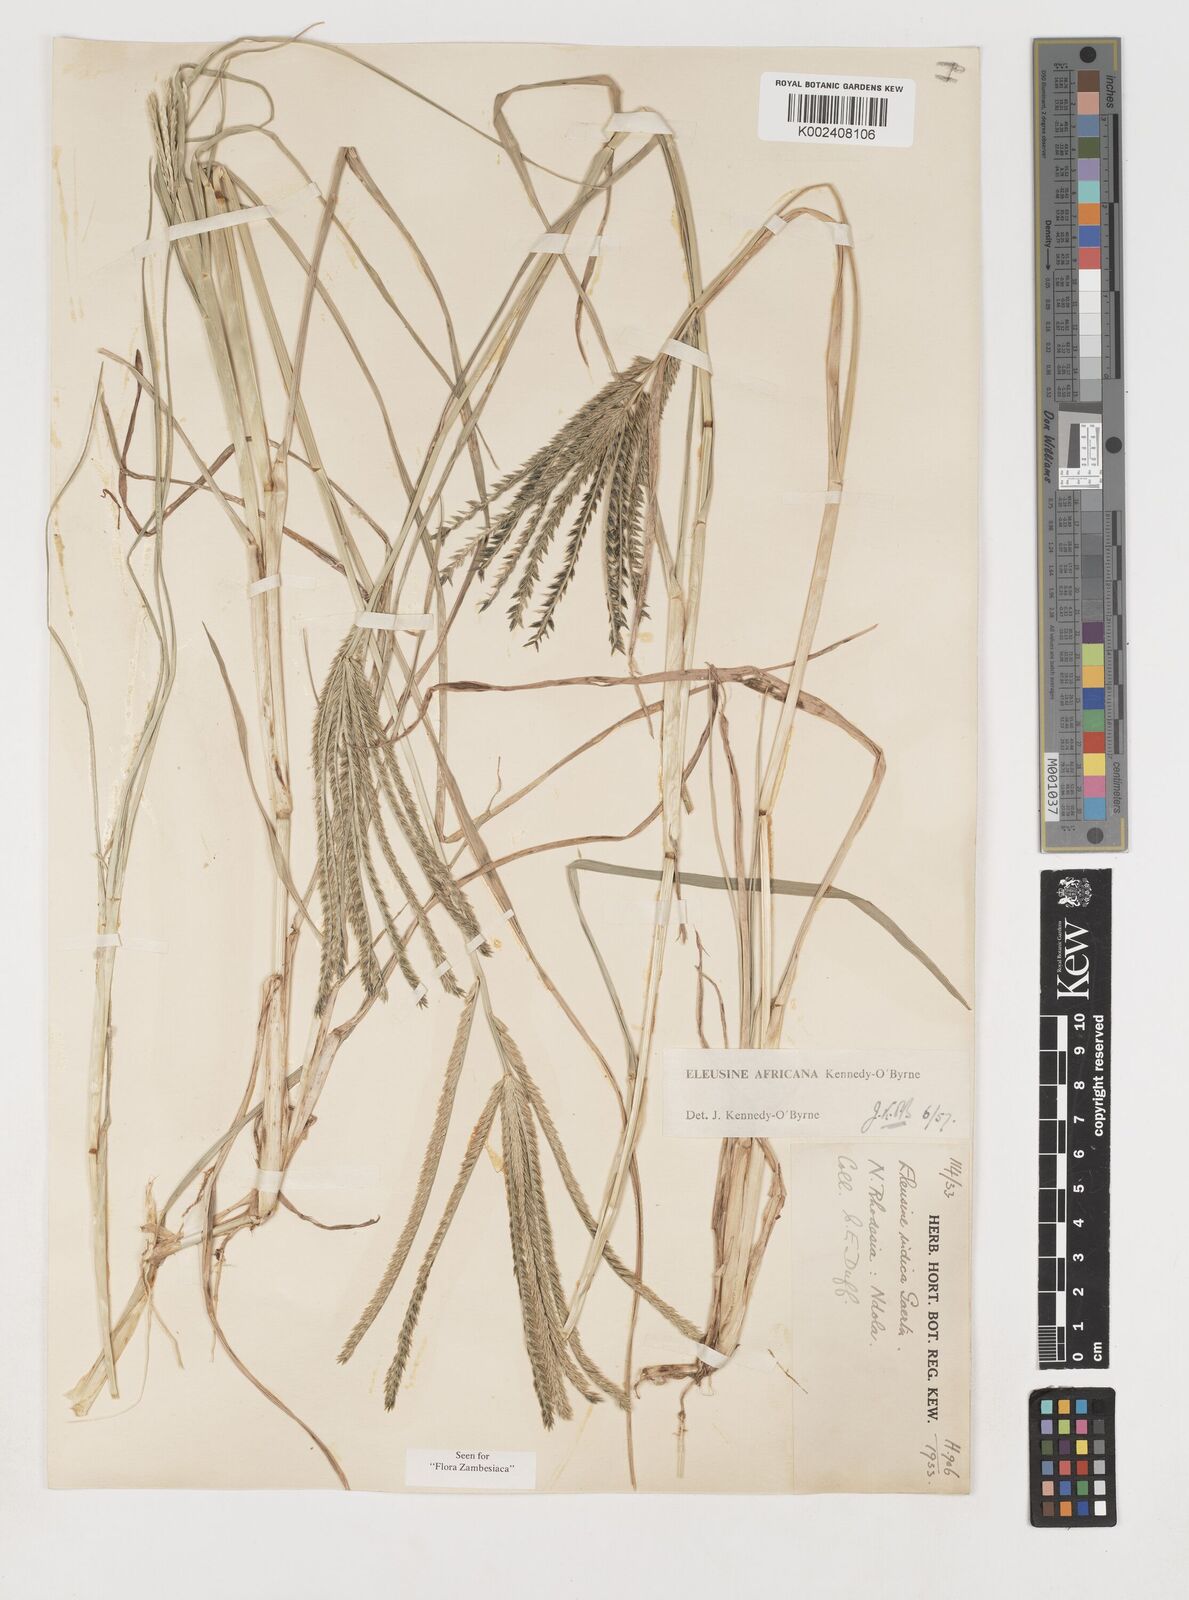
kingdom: Plantae
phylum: Tracheophyta
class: Liliopsida
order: Poales
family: Poaceae
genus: Eleusine
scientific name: Eleusine africana
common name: Wild african finger millet
